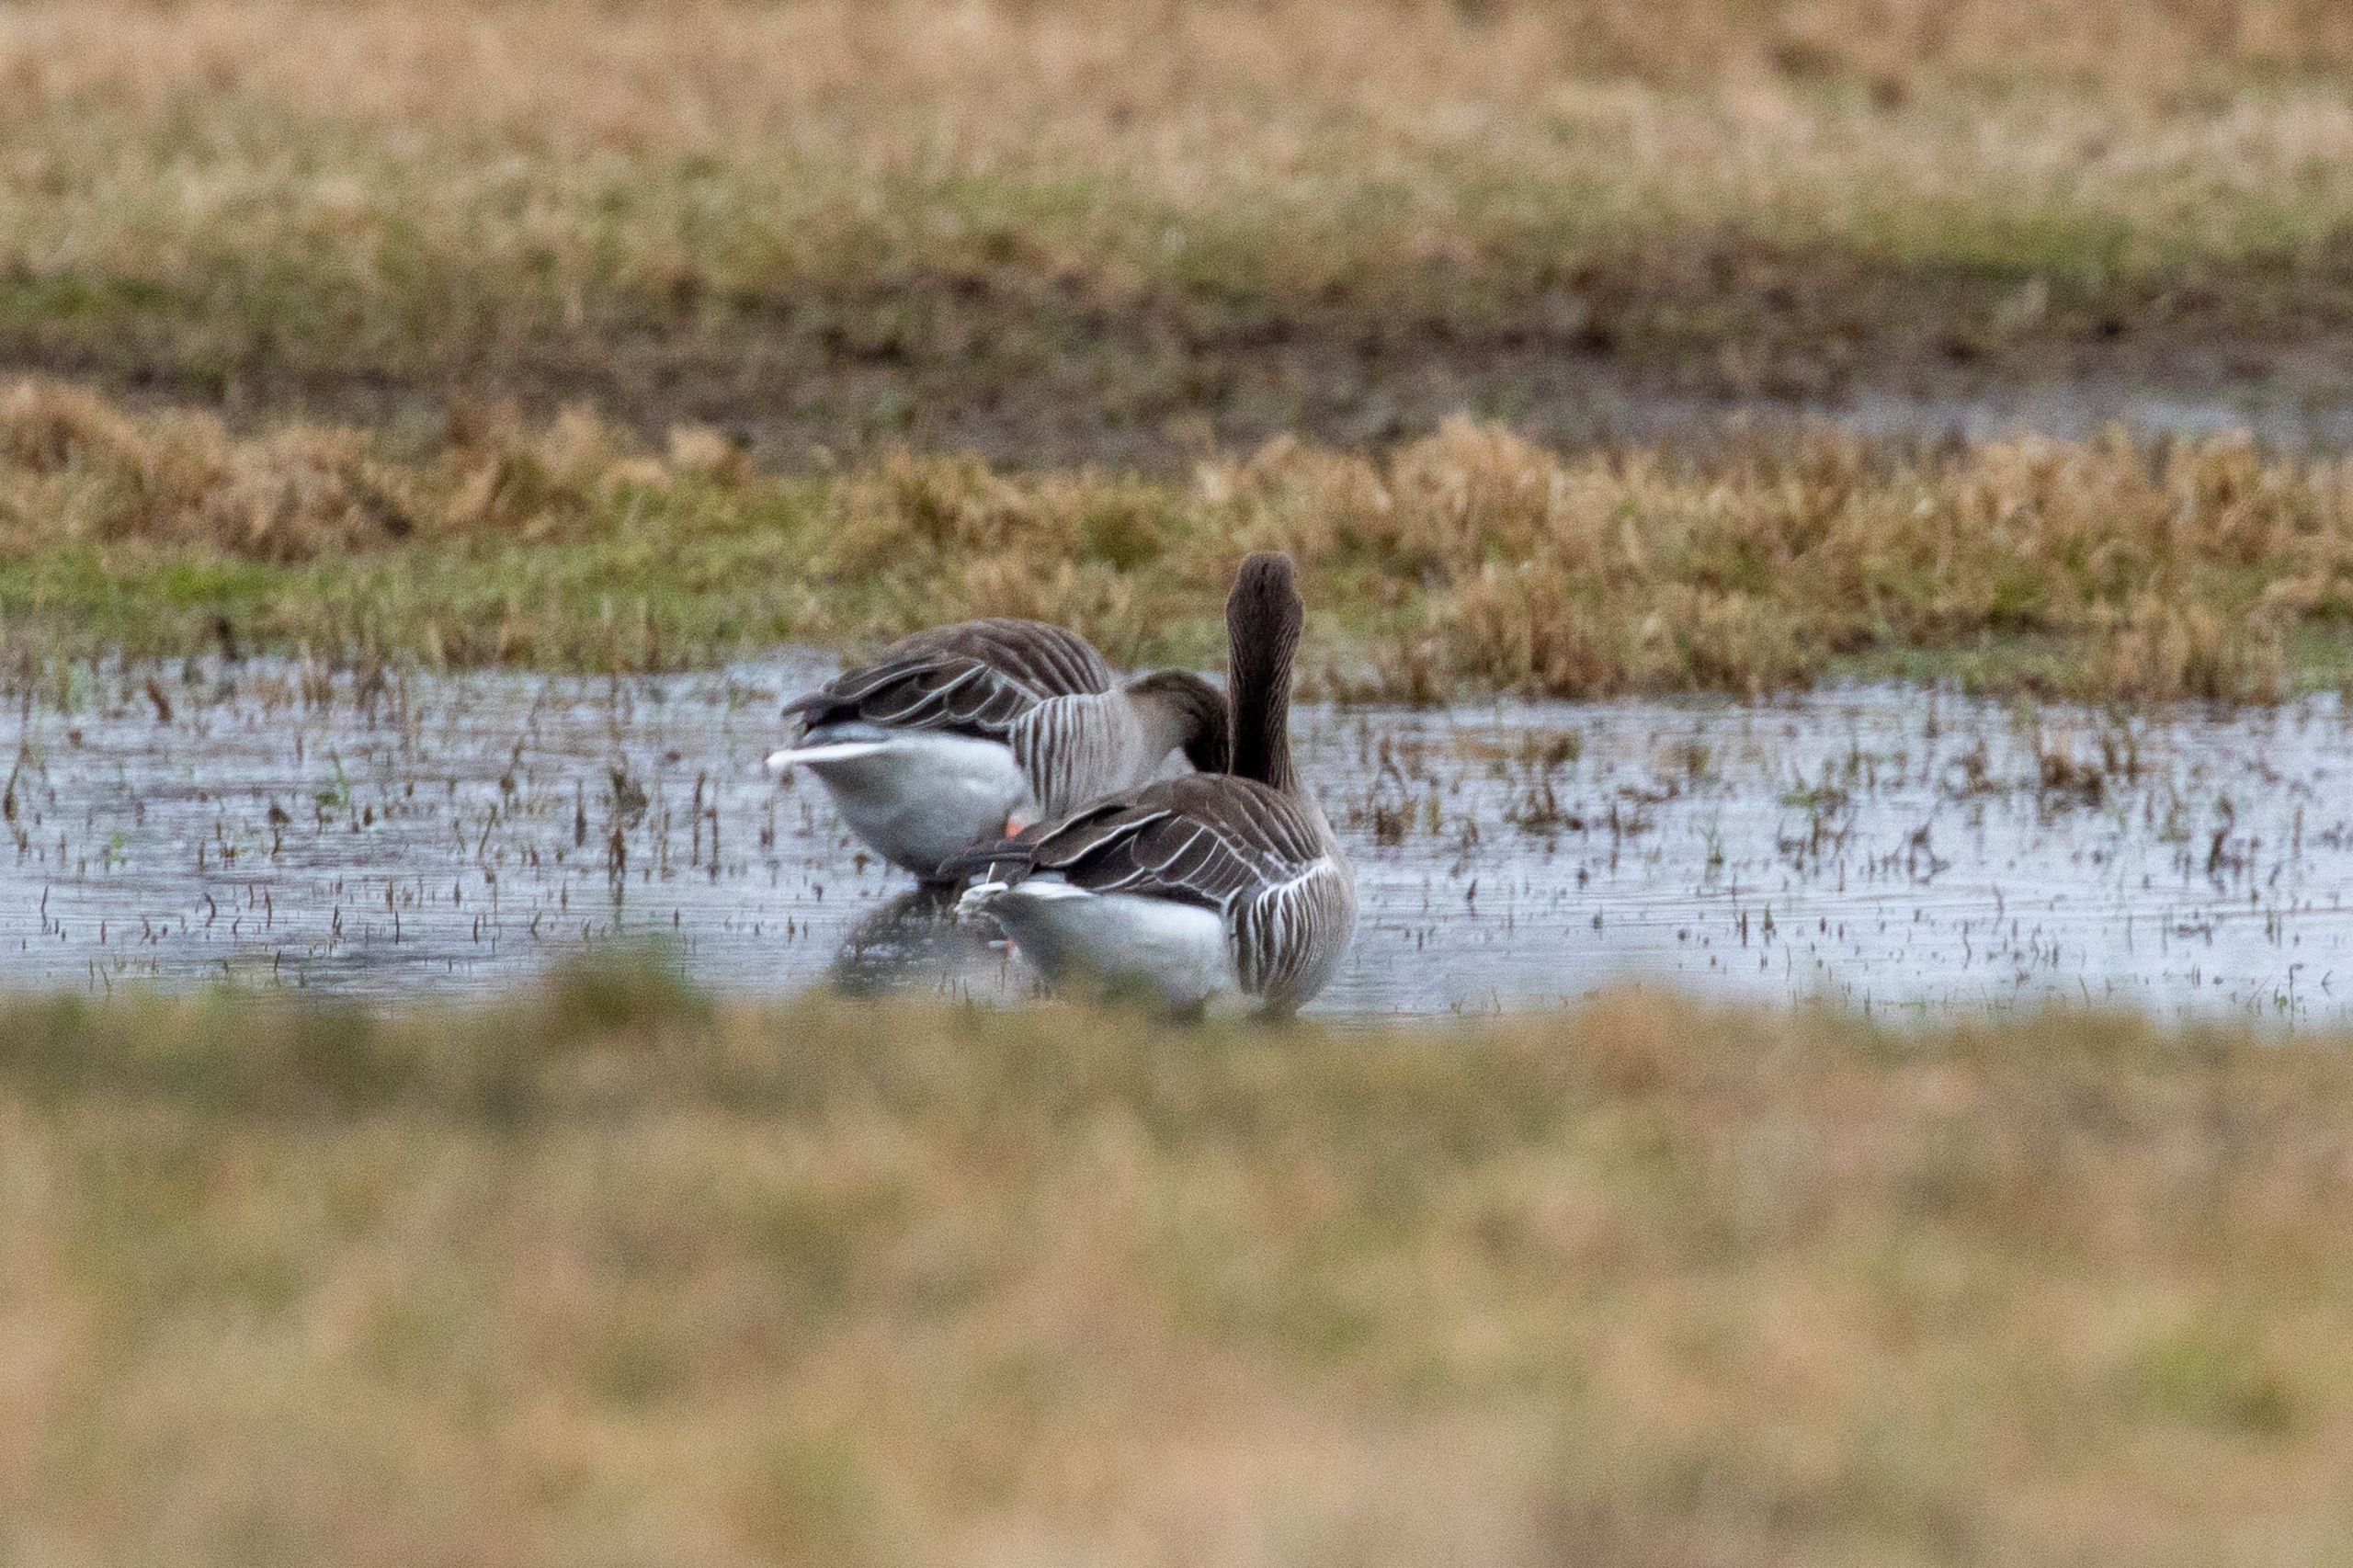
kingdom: Animalia
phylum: Chordata
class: Aves
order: Anseriformes
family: Anatidae
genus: Anser
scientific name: Anser anser
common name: Grågås
